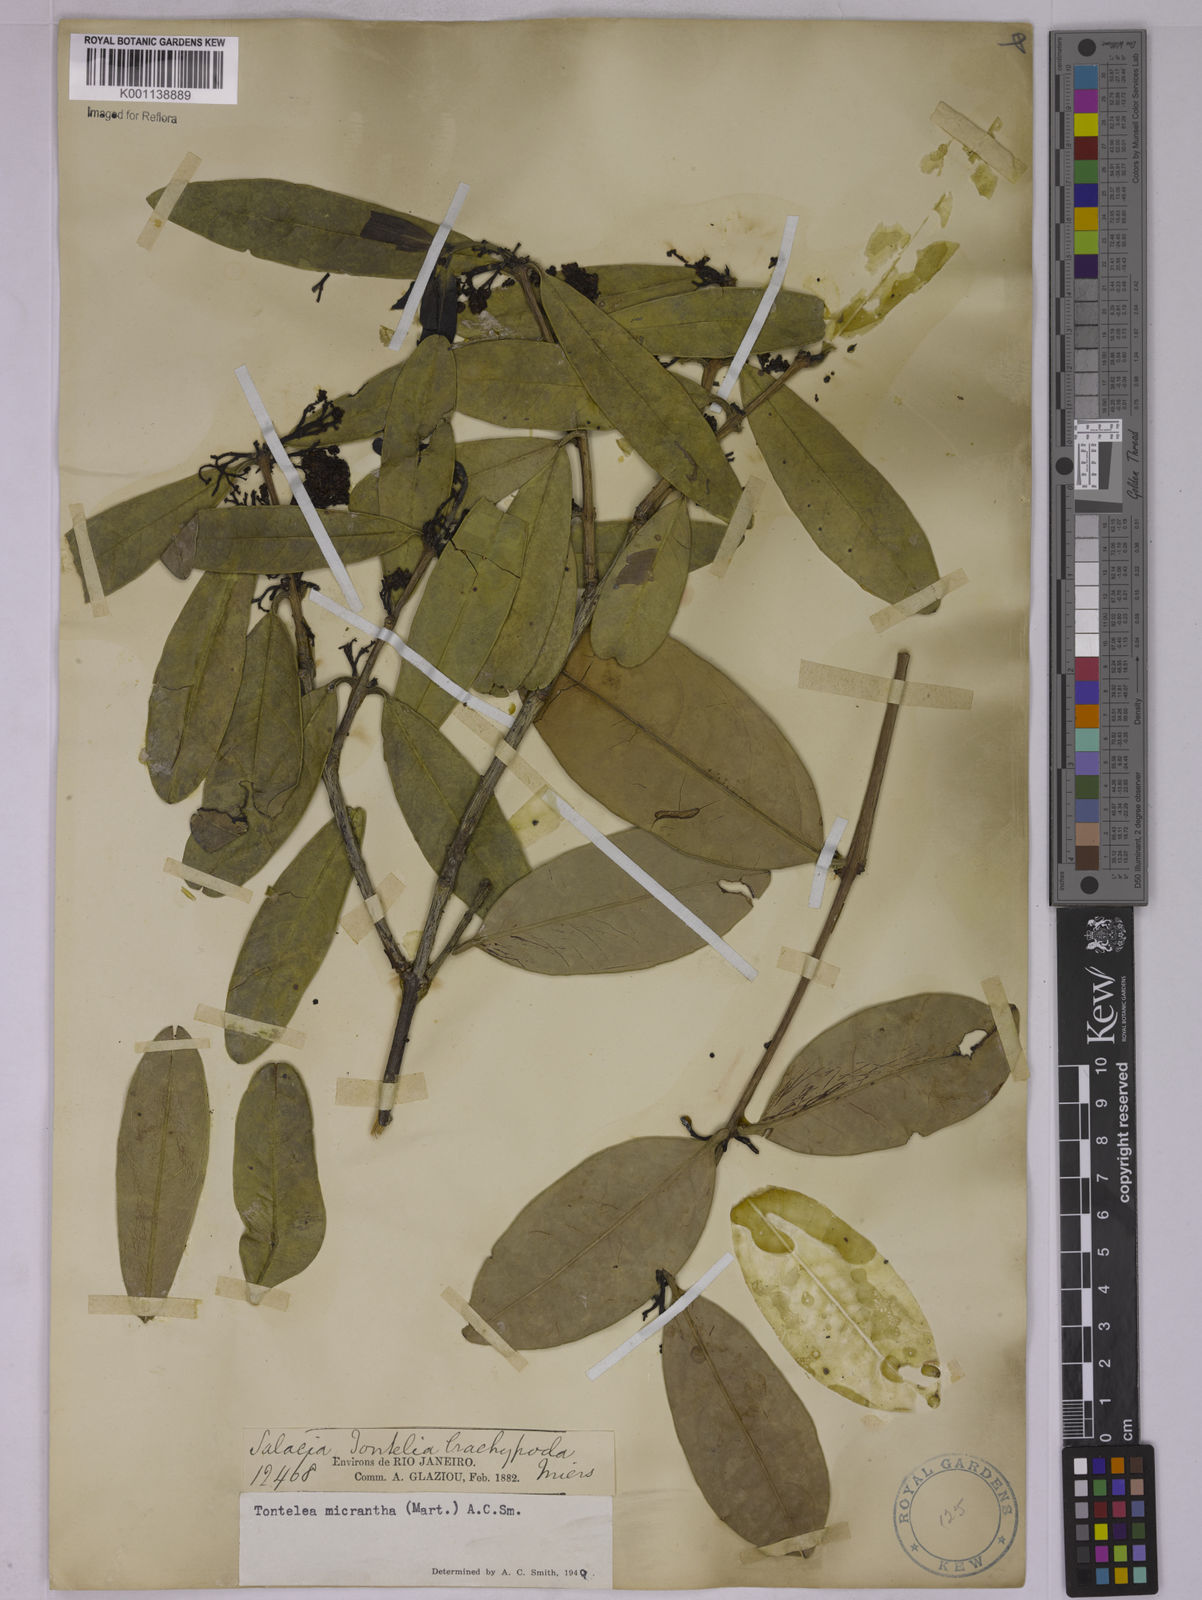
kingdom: Plantae
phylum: Tracheophyta
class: Magnoliopsida
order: Celastrales
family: Celastraceae
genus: Tontelea
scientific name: Tontelea micrantha
